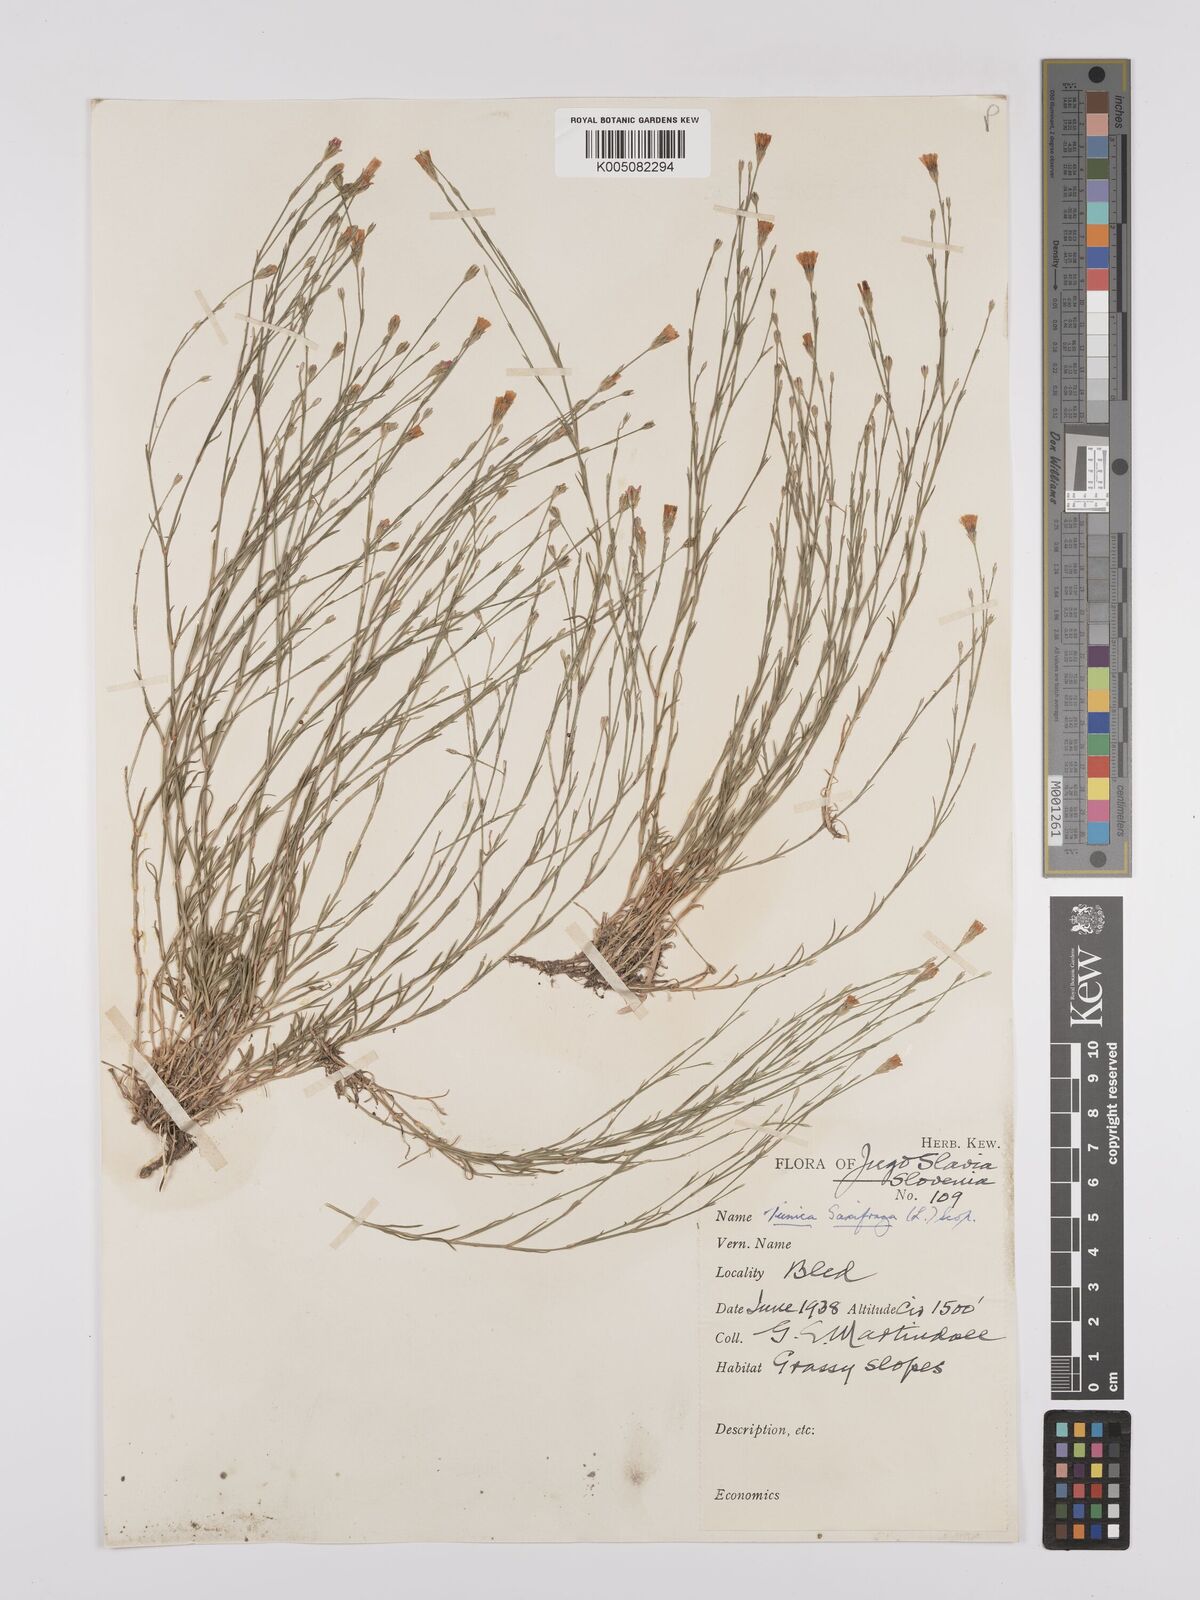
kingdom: Plantae
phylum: Tracheophyta
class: Magnoliopsida
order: Caryophyllales
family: Caryophyllaceae
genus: Petrorhagia
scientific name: Petrorhagia saxifraga
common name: Tunicflower
